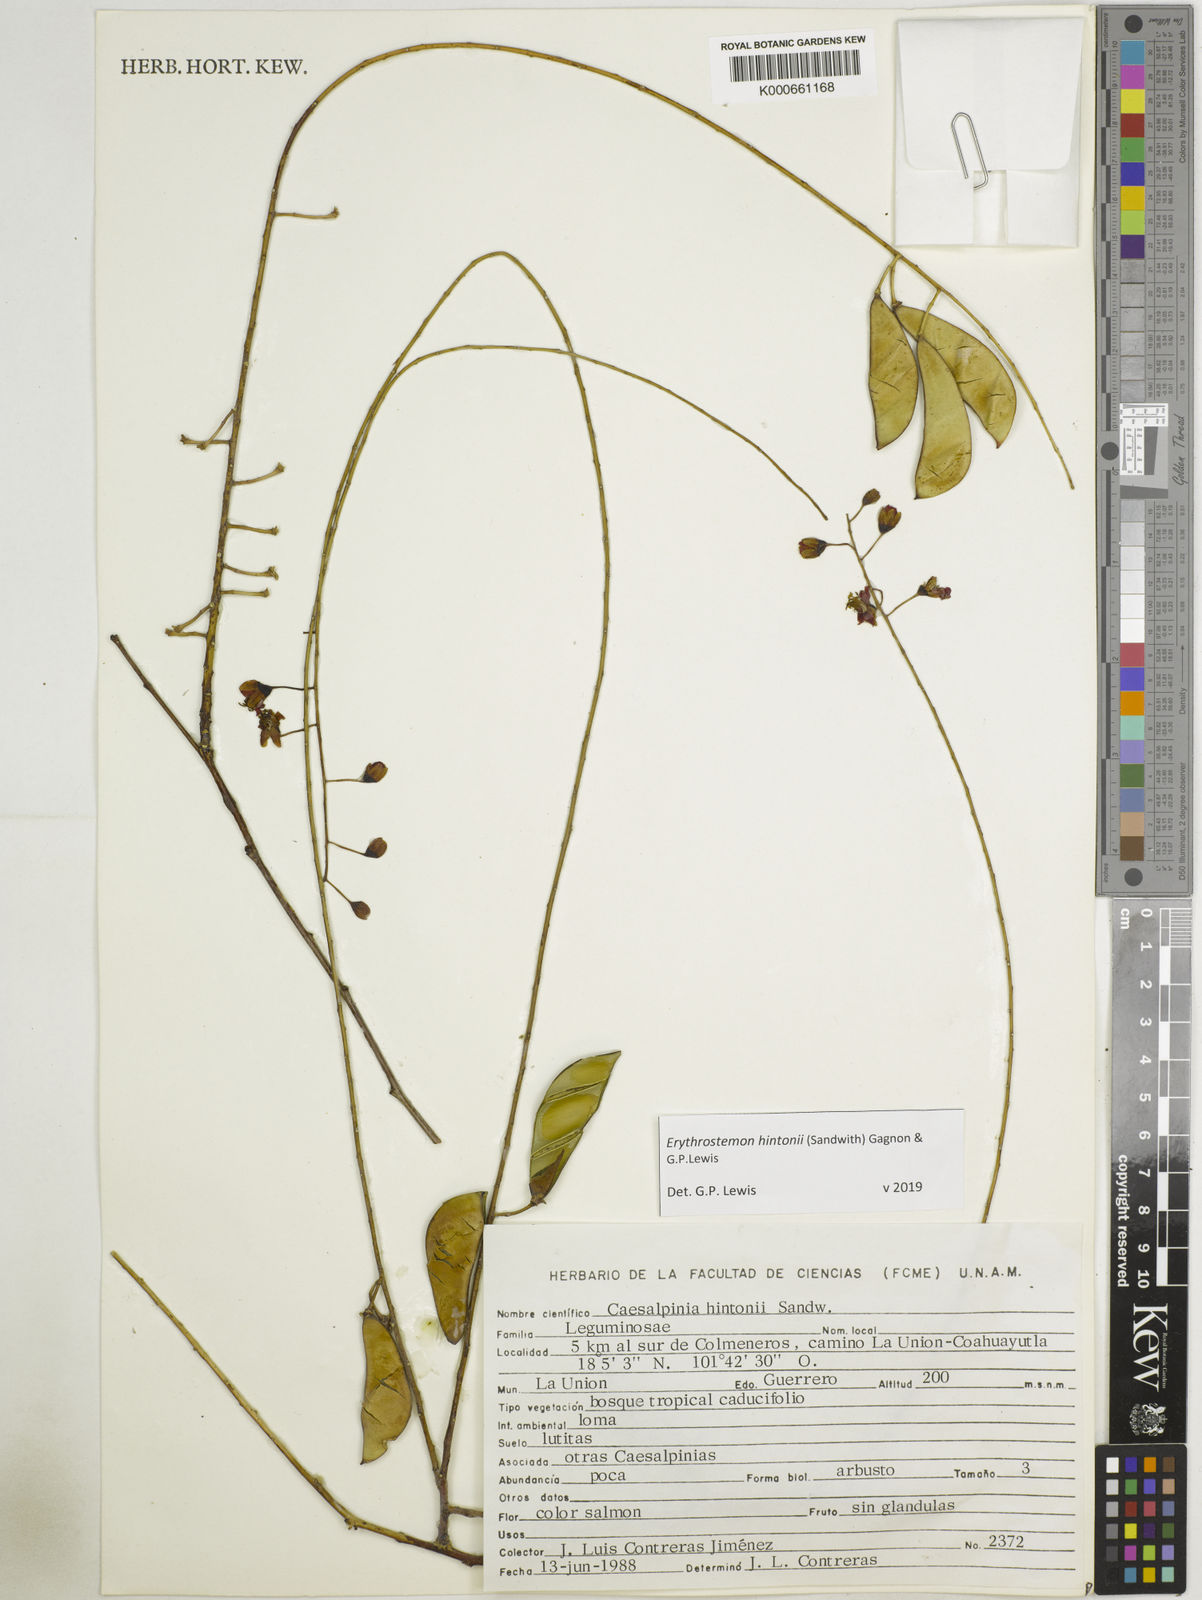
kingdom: Plantae
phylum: Tracheophyta
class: Magnoliopsida
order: Fabales
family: Fabaceae
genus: Erythrostemon
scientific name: Erythrostemon hintonii
